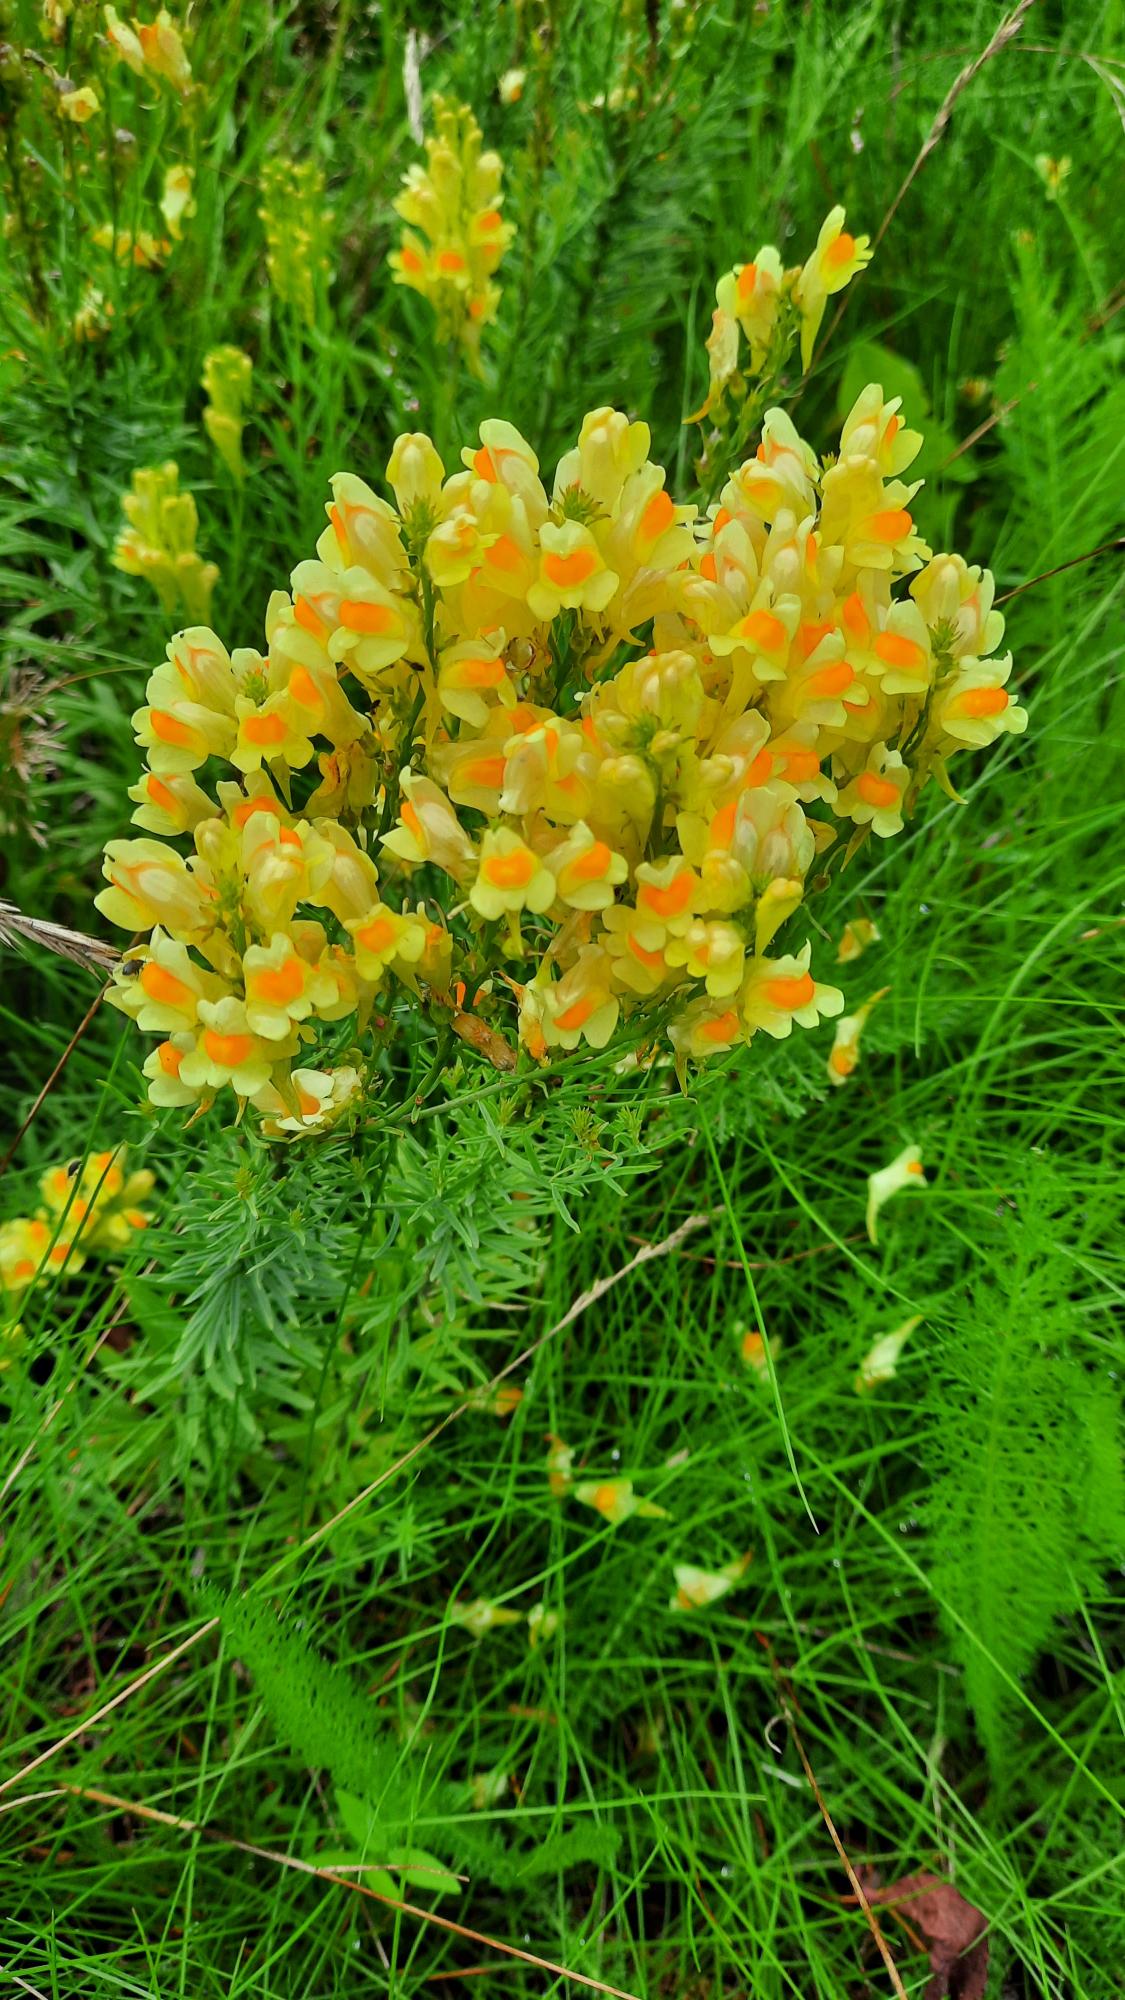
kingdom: Plantae
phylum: Tracheophyta
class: Magnoliopsida
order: Lamiales
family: Plantaginaceae
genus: Linaria
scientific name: Linaria vulgaris
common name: Almindelig torskemund
